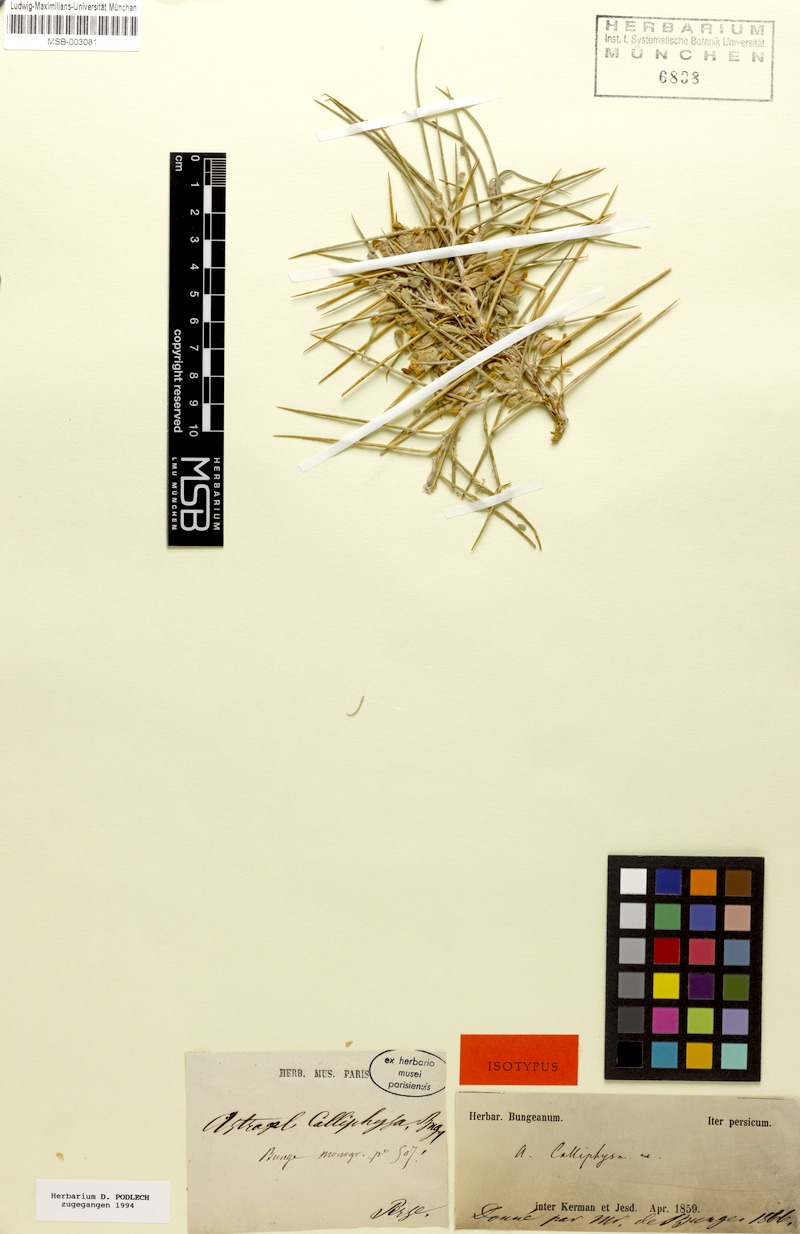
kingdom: Plantae
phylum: Tracheophyta
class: Magnoliopsida
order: Fabales
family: Fabaceae
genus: Astragalus
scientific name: Astragalus calliphysa
